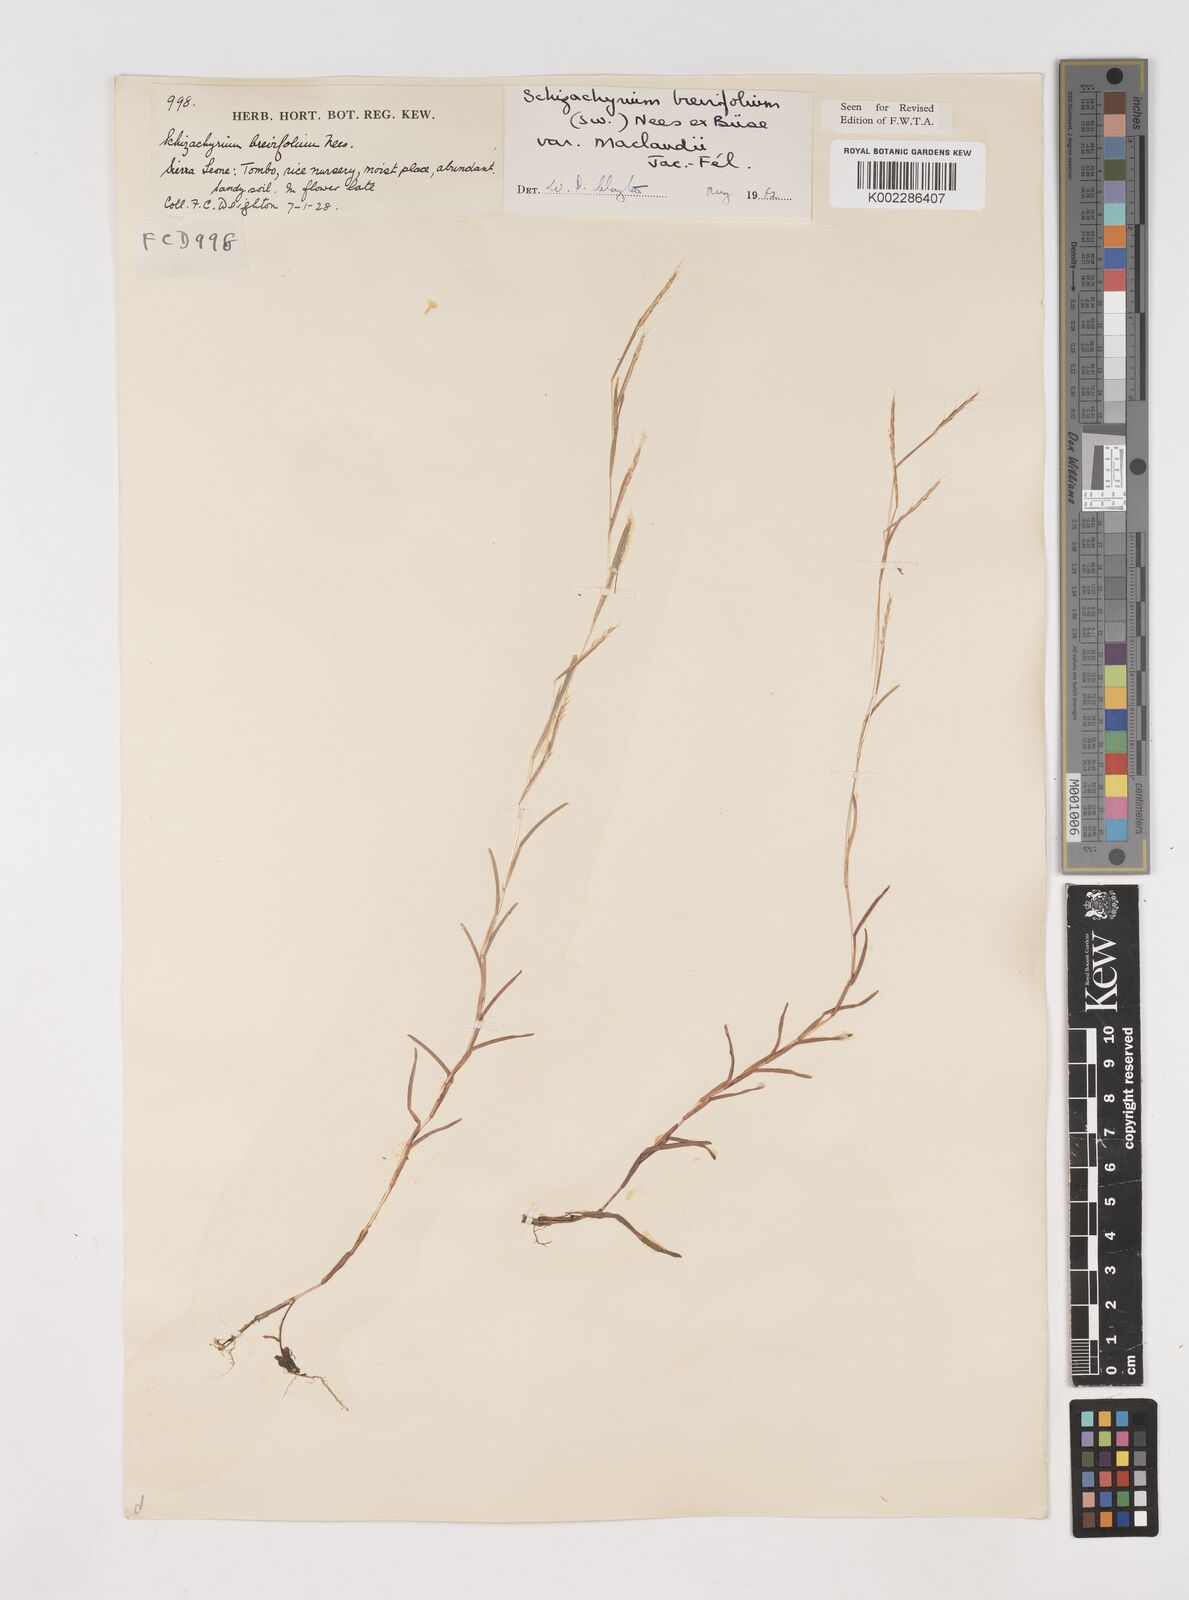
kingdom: Plantae
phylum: Tracheophyta
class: Liliopsida
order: Poales
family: Poaceae
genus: Schizachyrium
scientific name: Schizachyrium maclaudii
